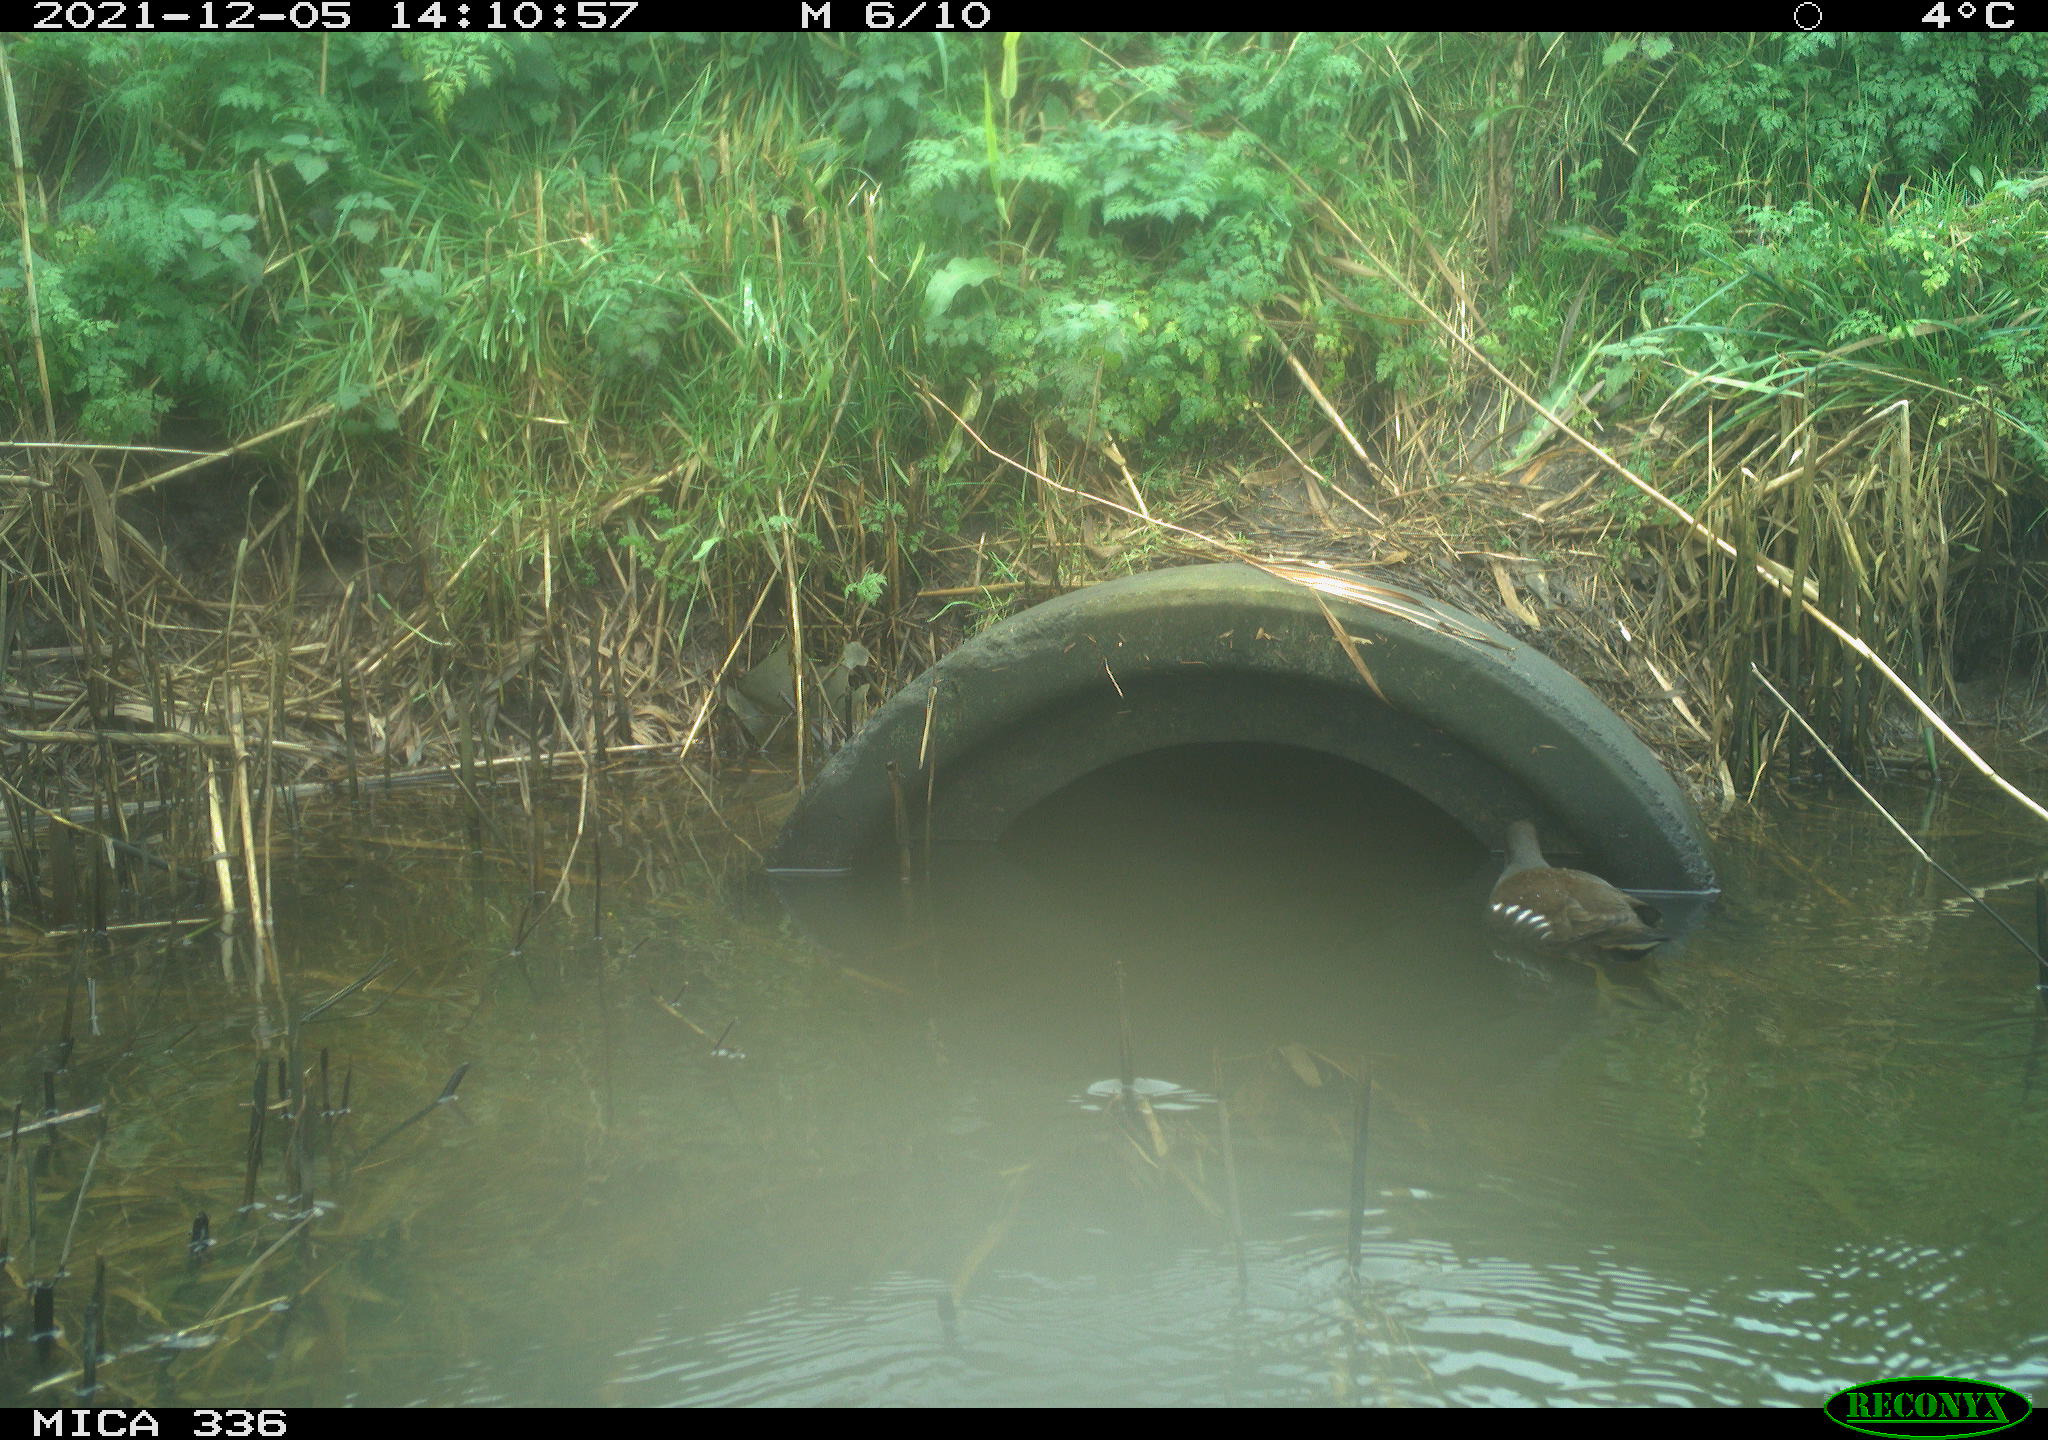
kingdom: Animalia
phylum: Chordata
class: Aves
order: Gruiformes
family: Rallidae
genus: Gallinula
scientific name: Gallinula chloropus
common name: Common moorhen
